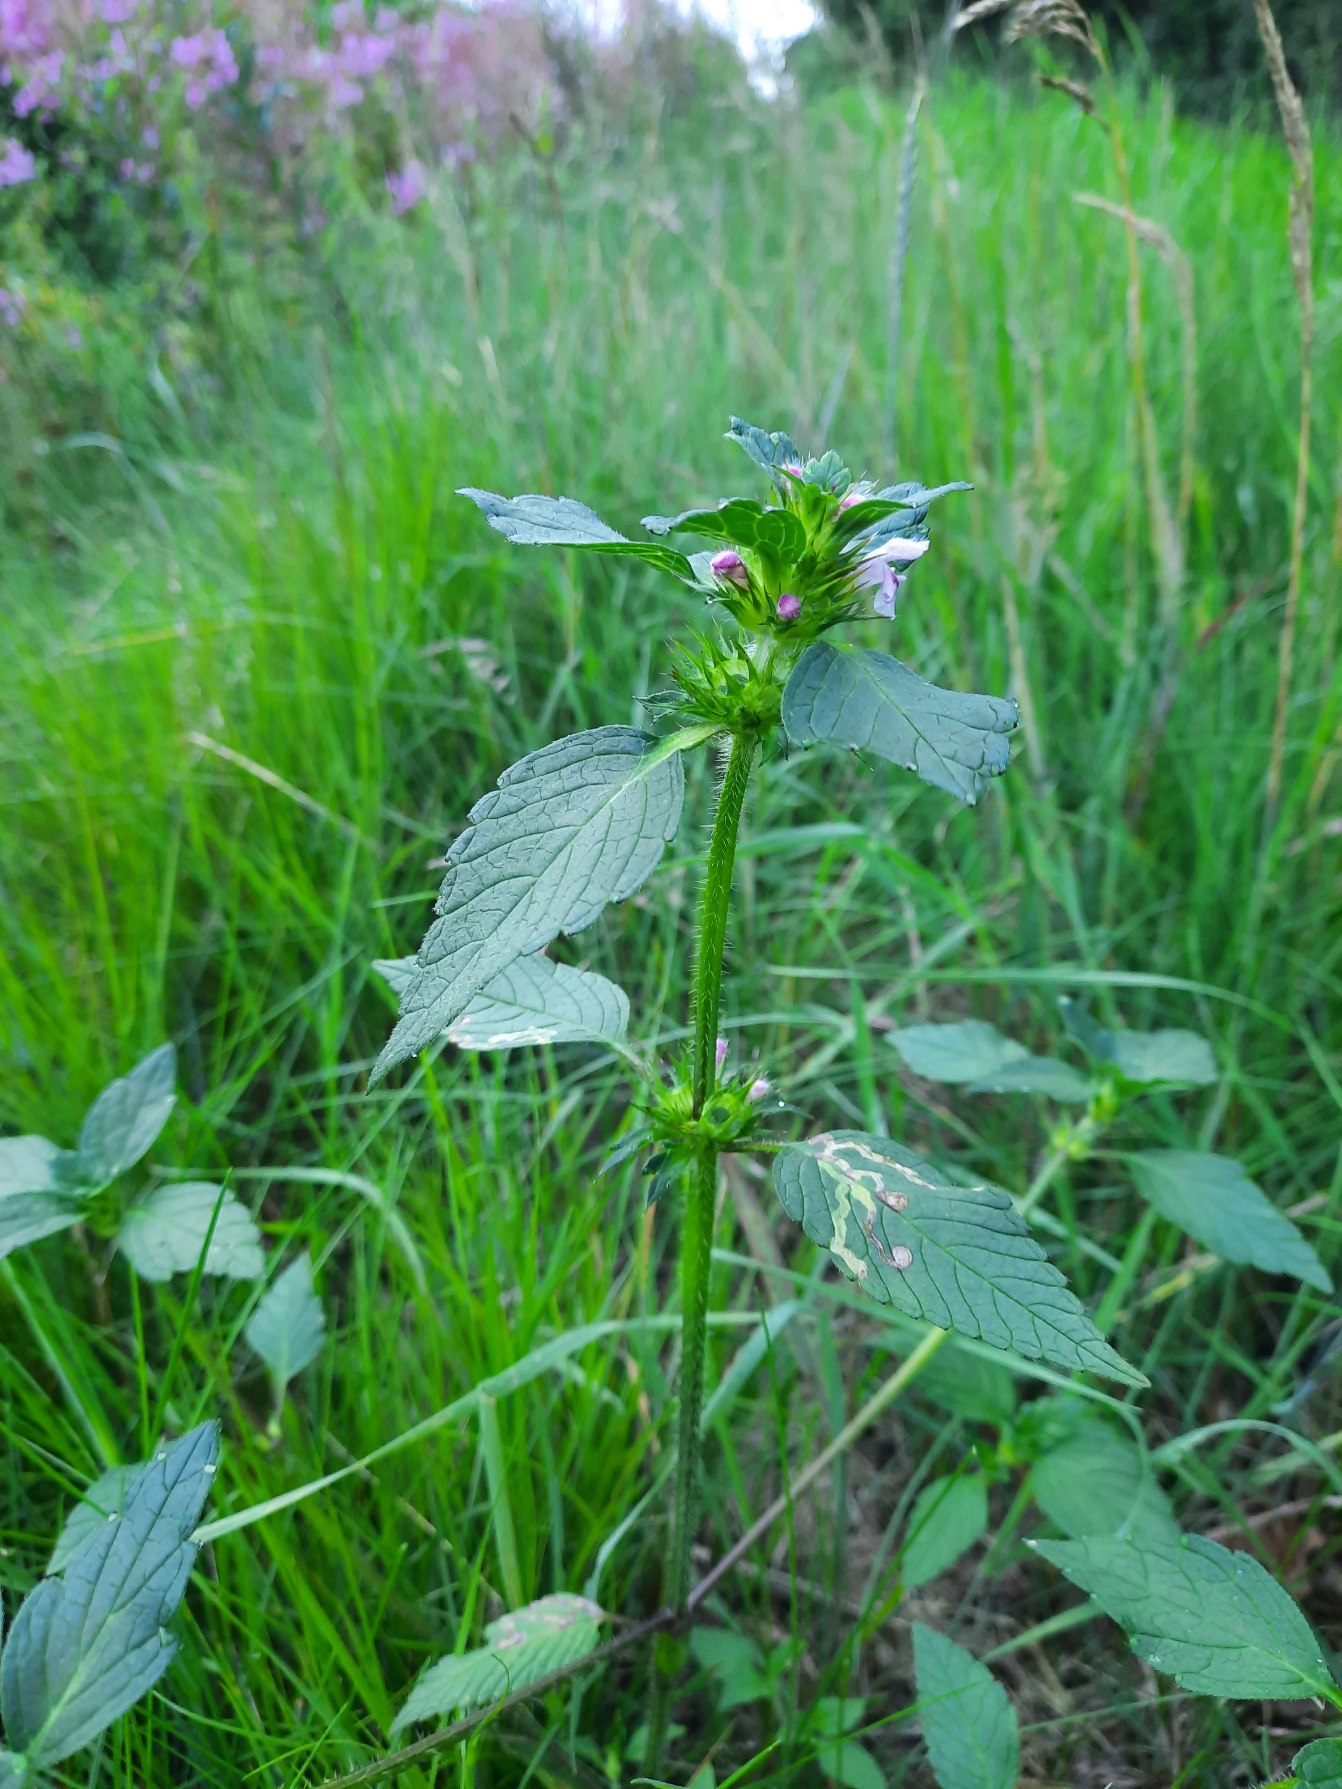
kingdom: Plantae
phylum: Tracheophyta
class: Magnoliopsida
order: Lamiales
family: Lamiaceae
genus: Galeopsis
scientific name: Galeopsis tetrahit
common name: Almindelig hanekro
